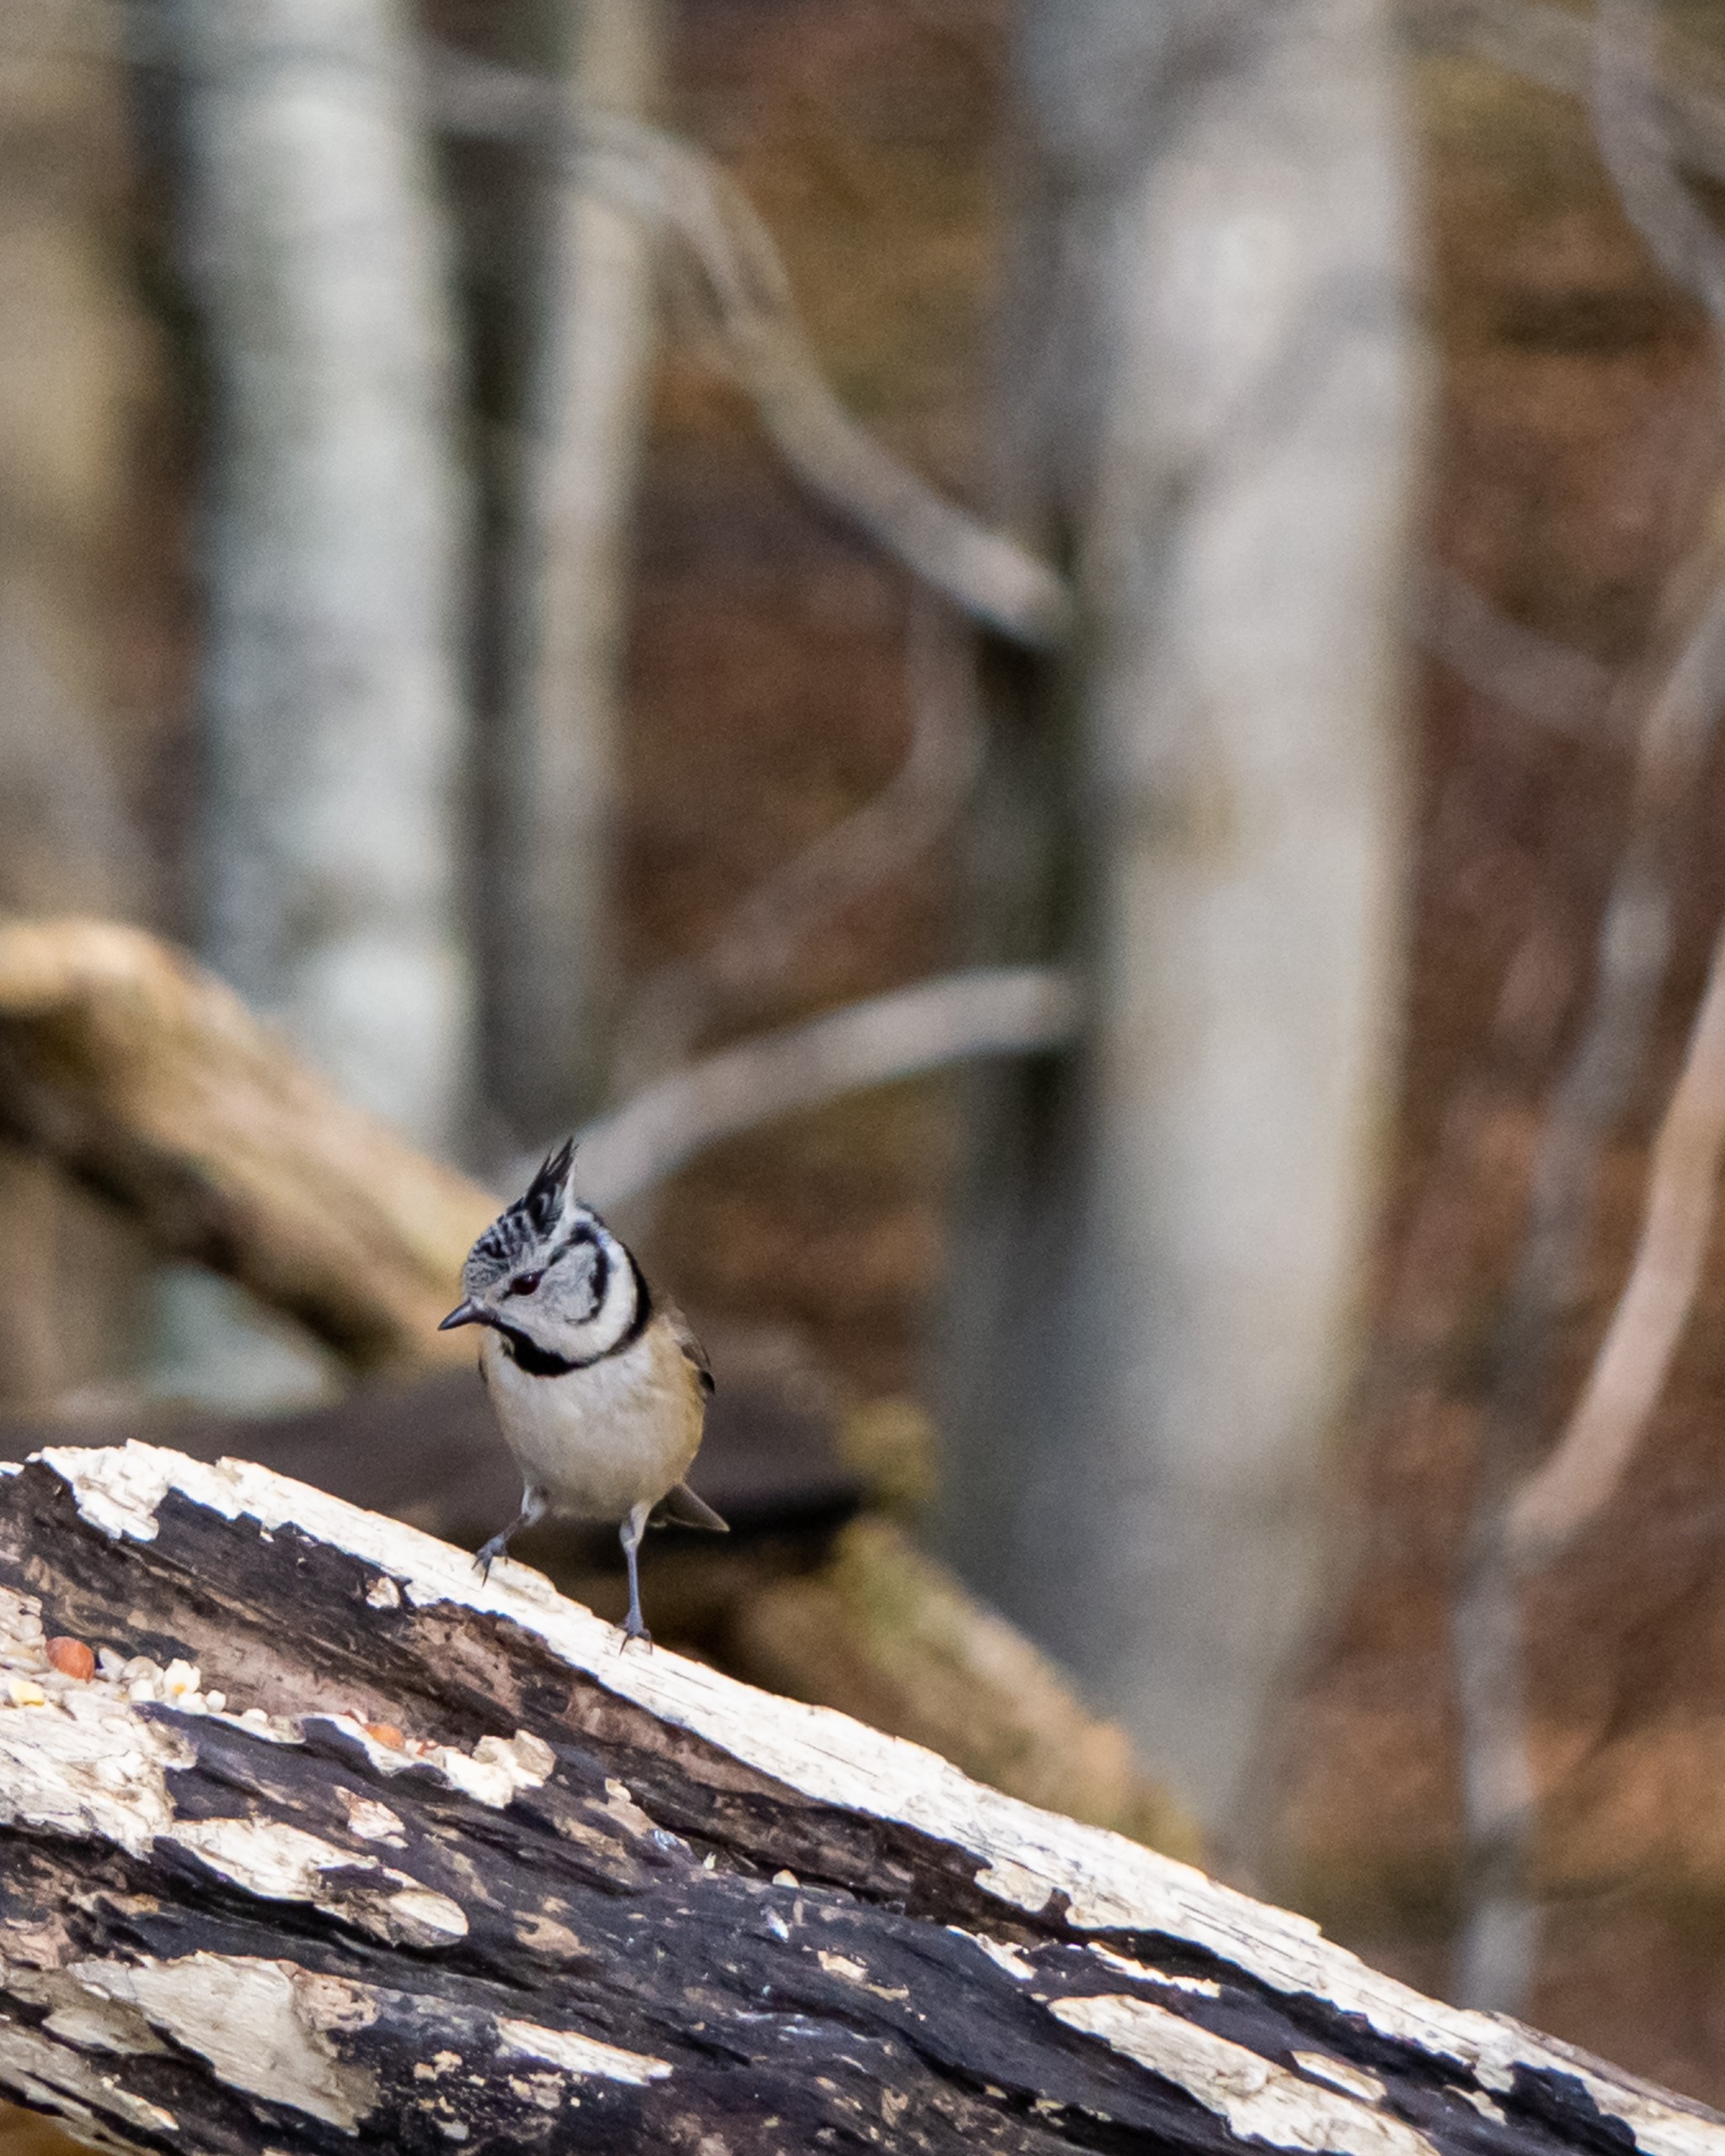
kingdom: Animalia
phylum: Chordata
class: Aves
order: Passeriformes
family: Paridae
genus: Lophophanes
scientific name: Lophophanes cristatus
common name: Topmejse
